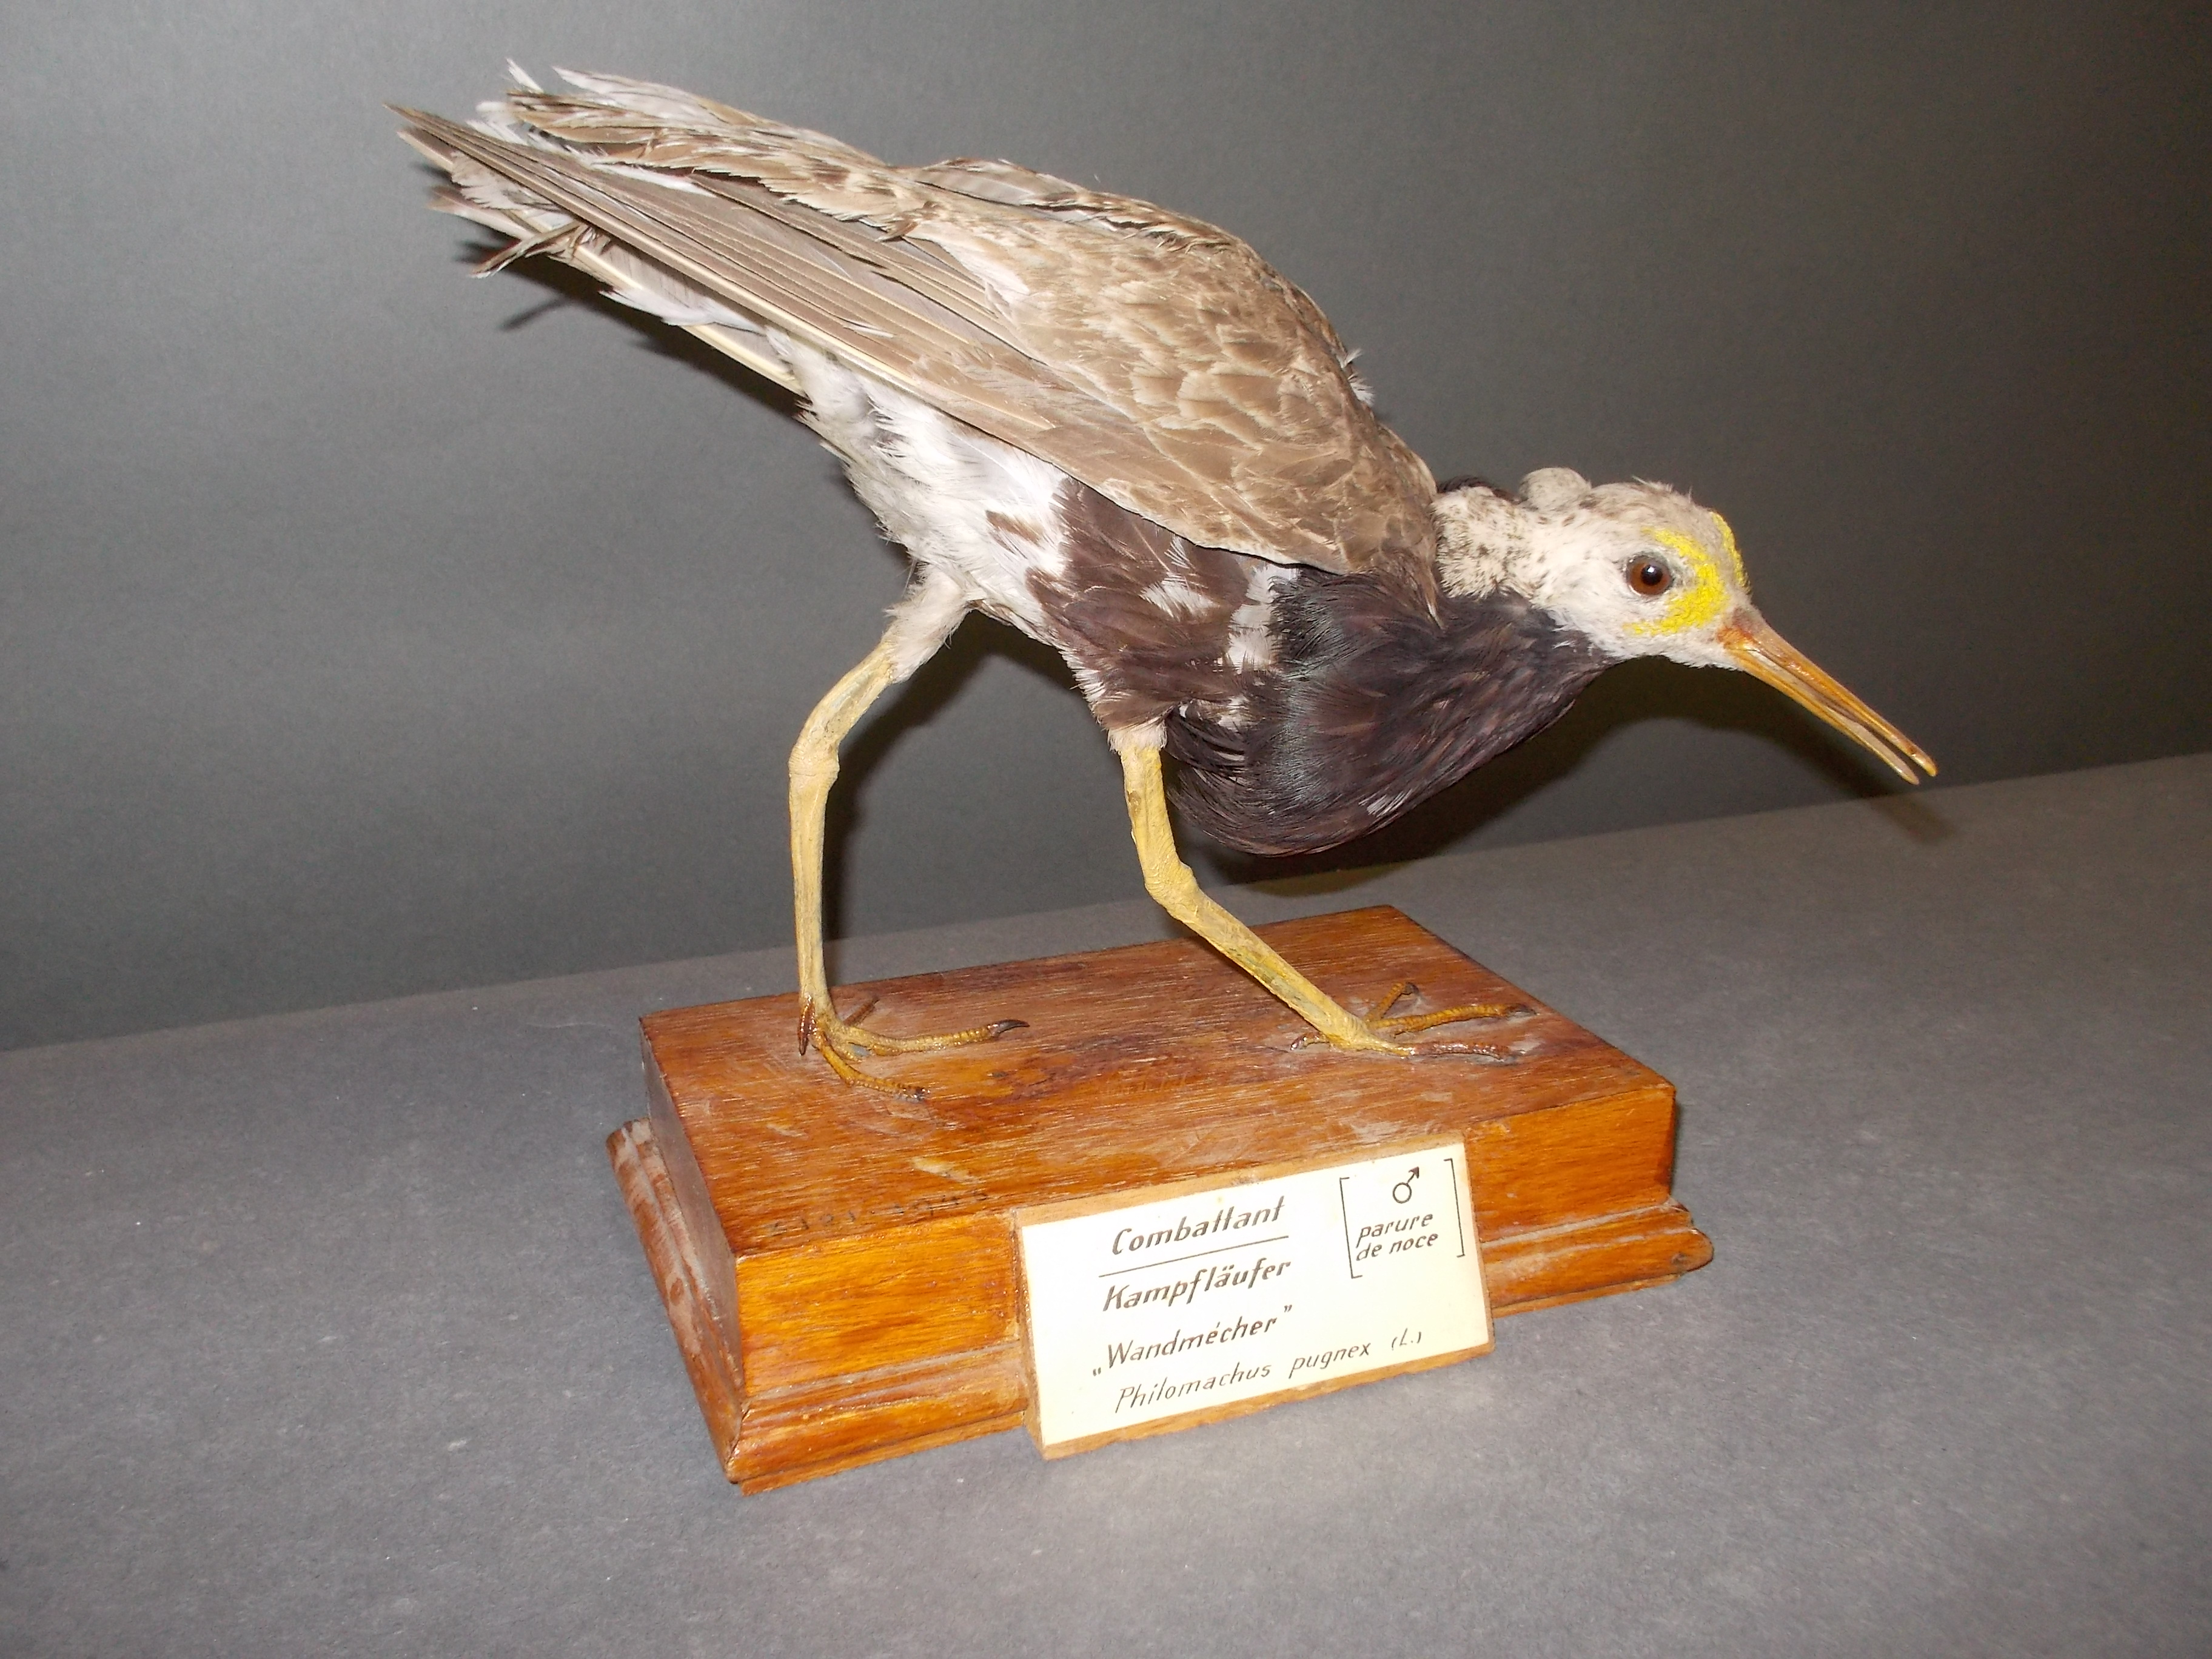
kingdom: Animalia
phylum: Chordata
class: Aves
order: Charadriiformes
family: Scolopacidae
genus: Calidris
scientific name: Calidris pugnax
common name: Ruff
